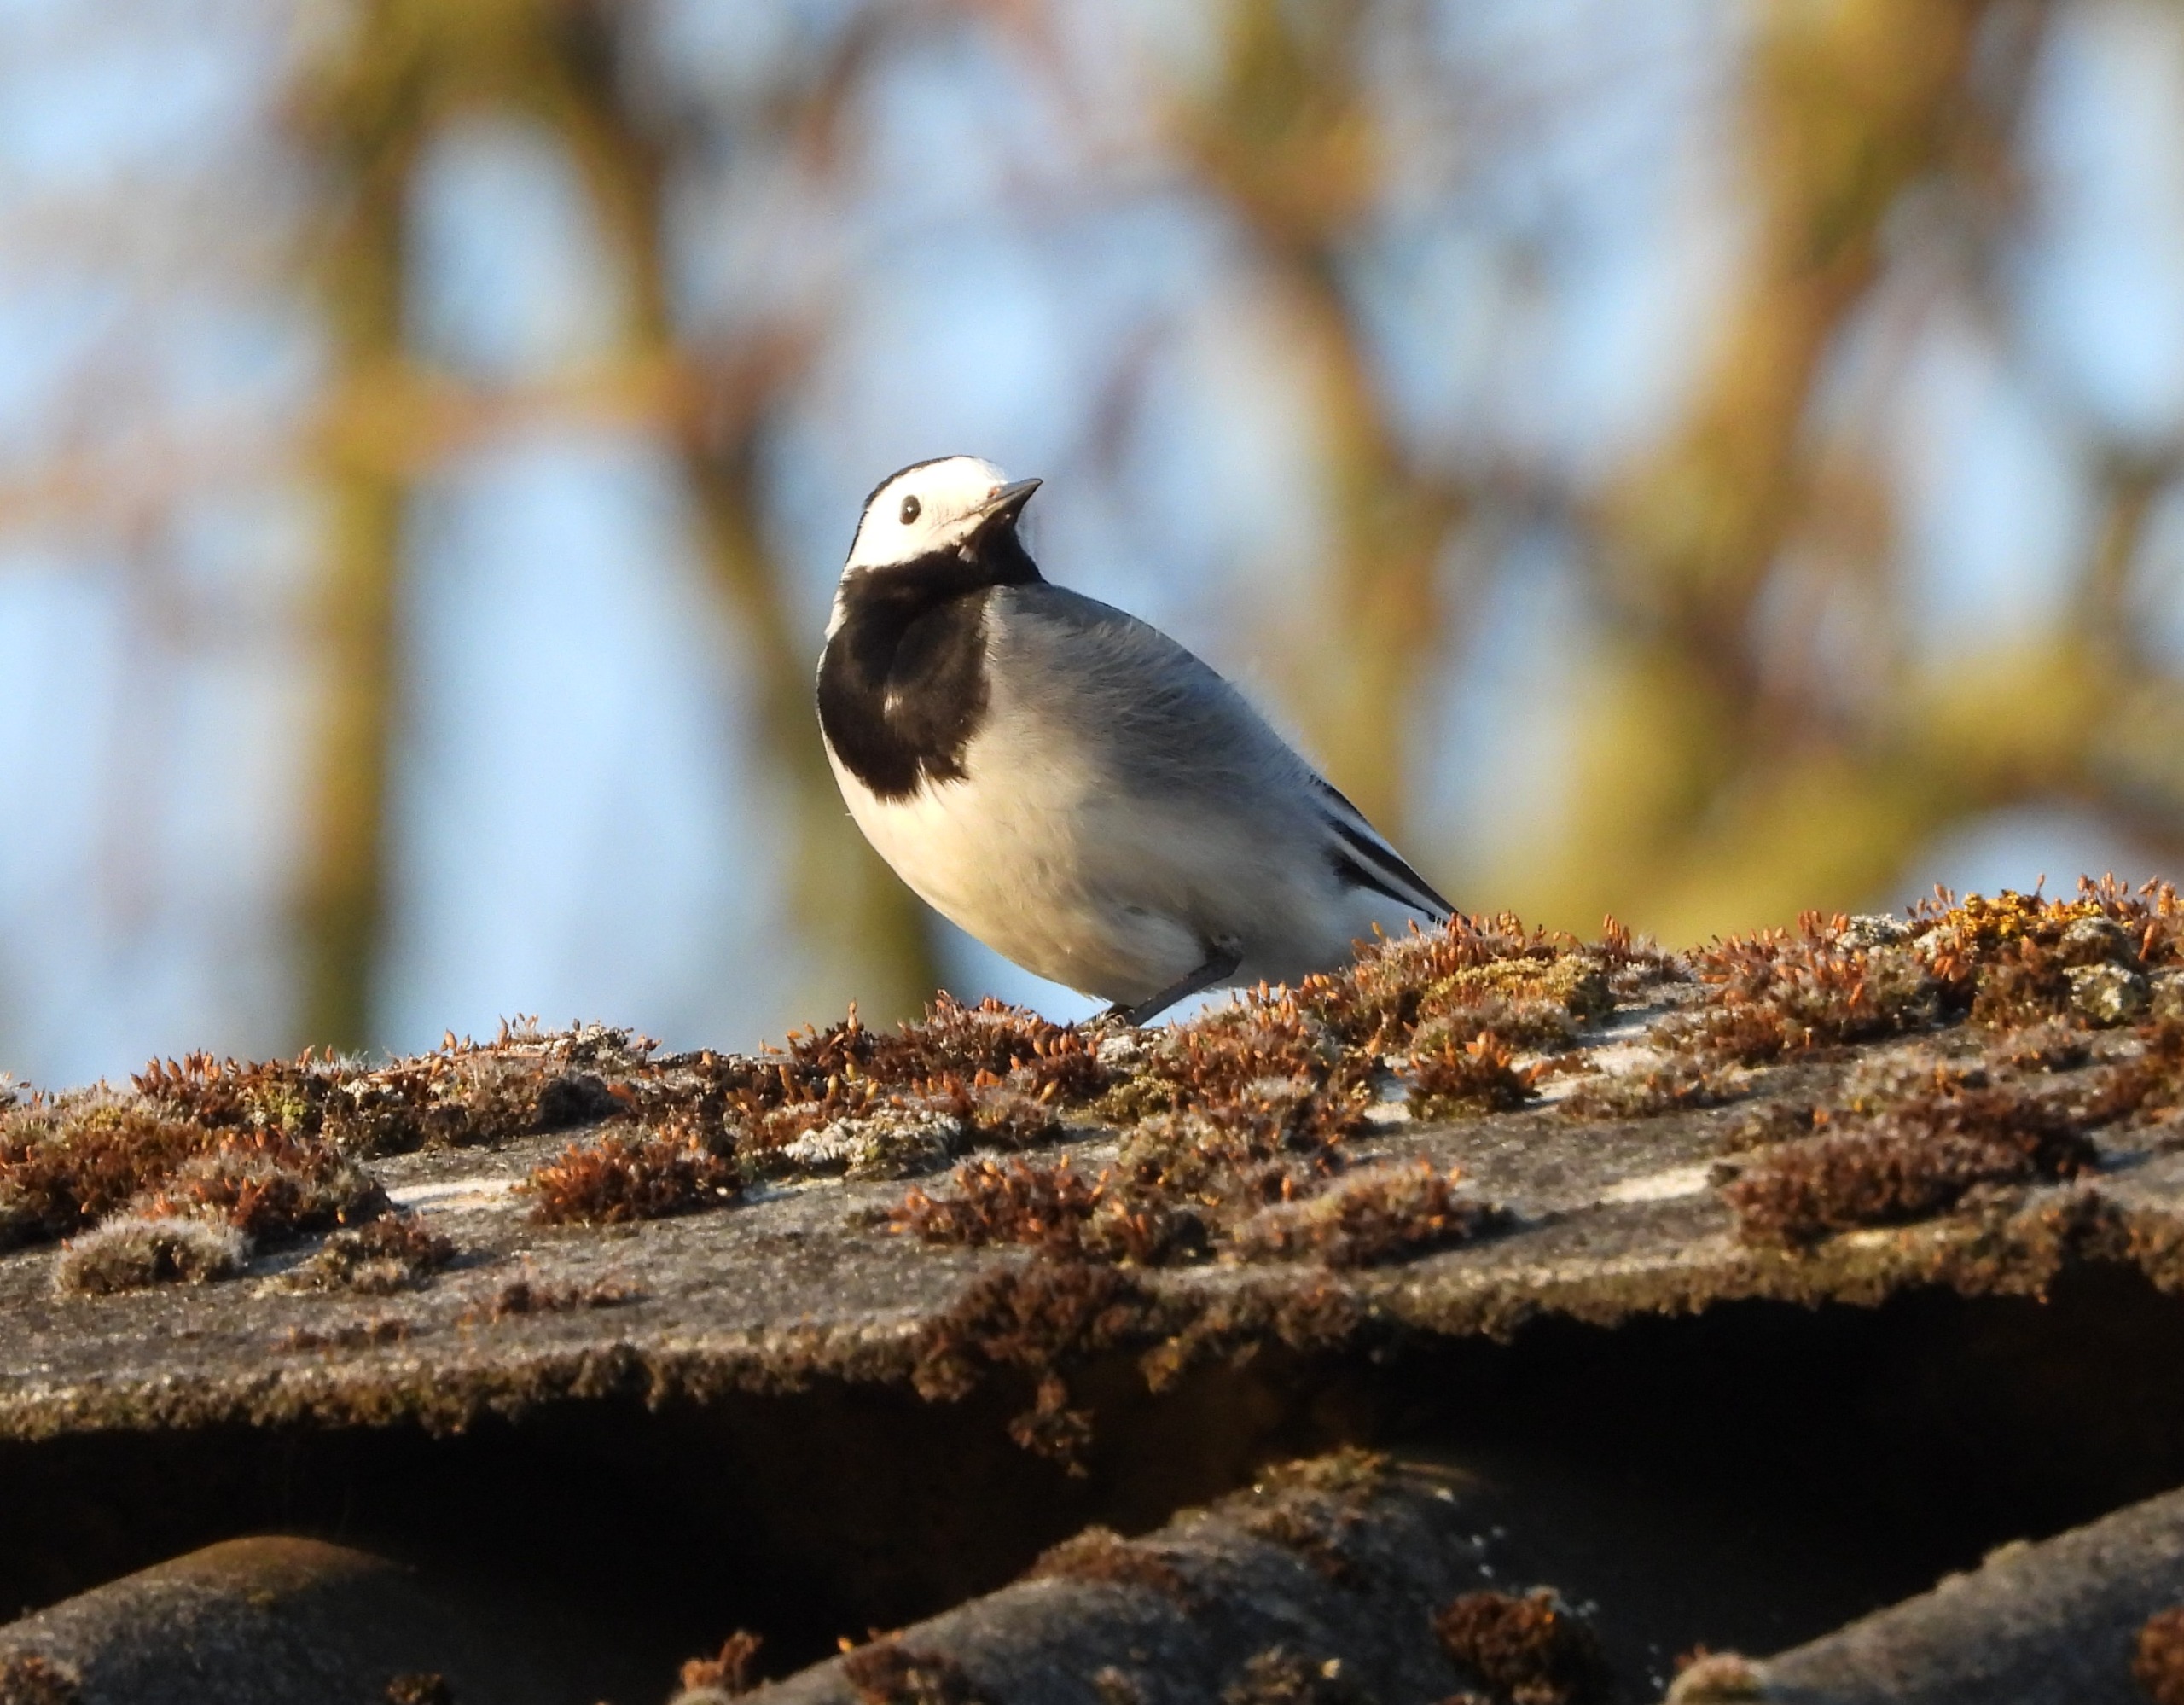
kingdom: Animalia
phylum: Chordata
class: Aves
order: Passeriformes
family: Motacillidae
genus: Motacilla
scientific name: Motacilla alba
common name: Hvid vipstjert
